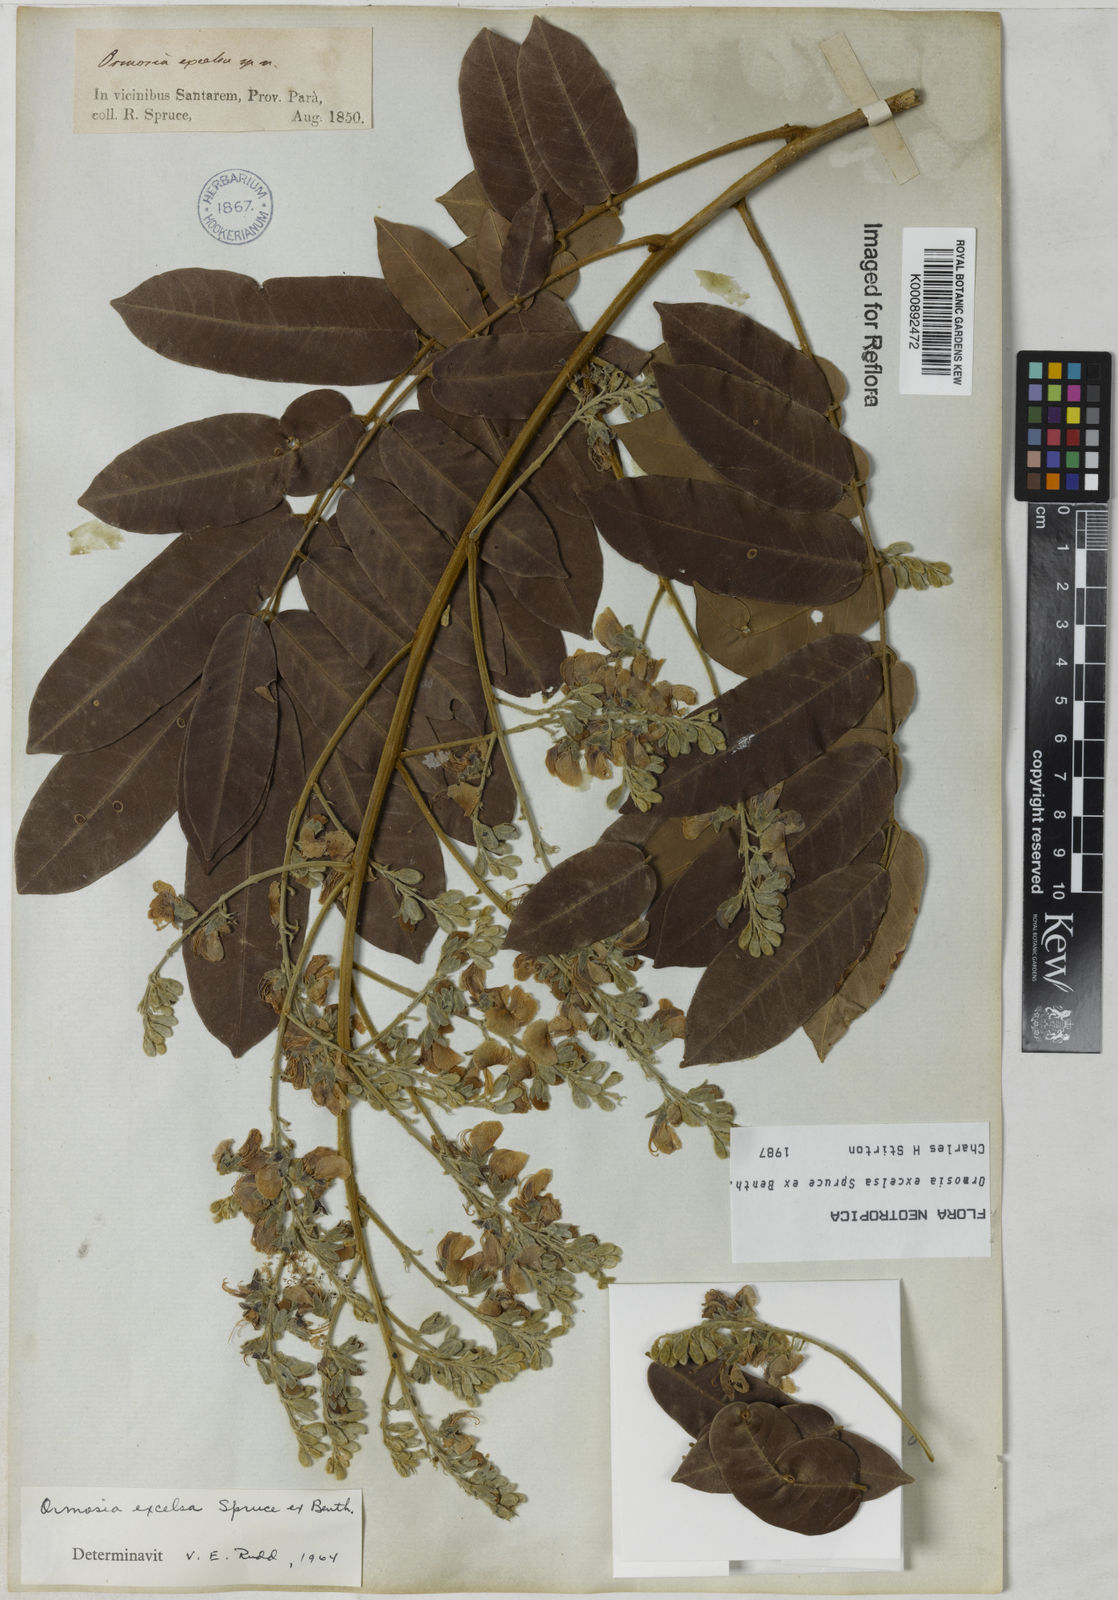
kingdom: Plantae
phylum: Tracheophyta
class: Magnoliopsida
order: Fabales
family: Fabaceae
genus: Ormosia
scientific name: Ormosia excelsa
